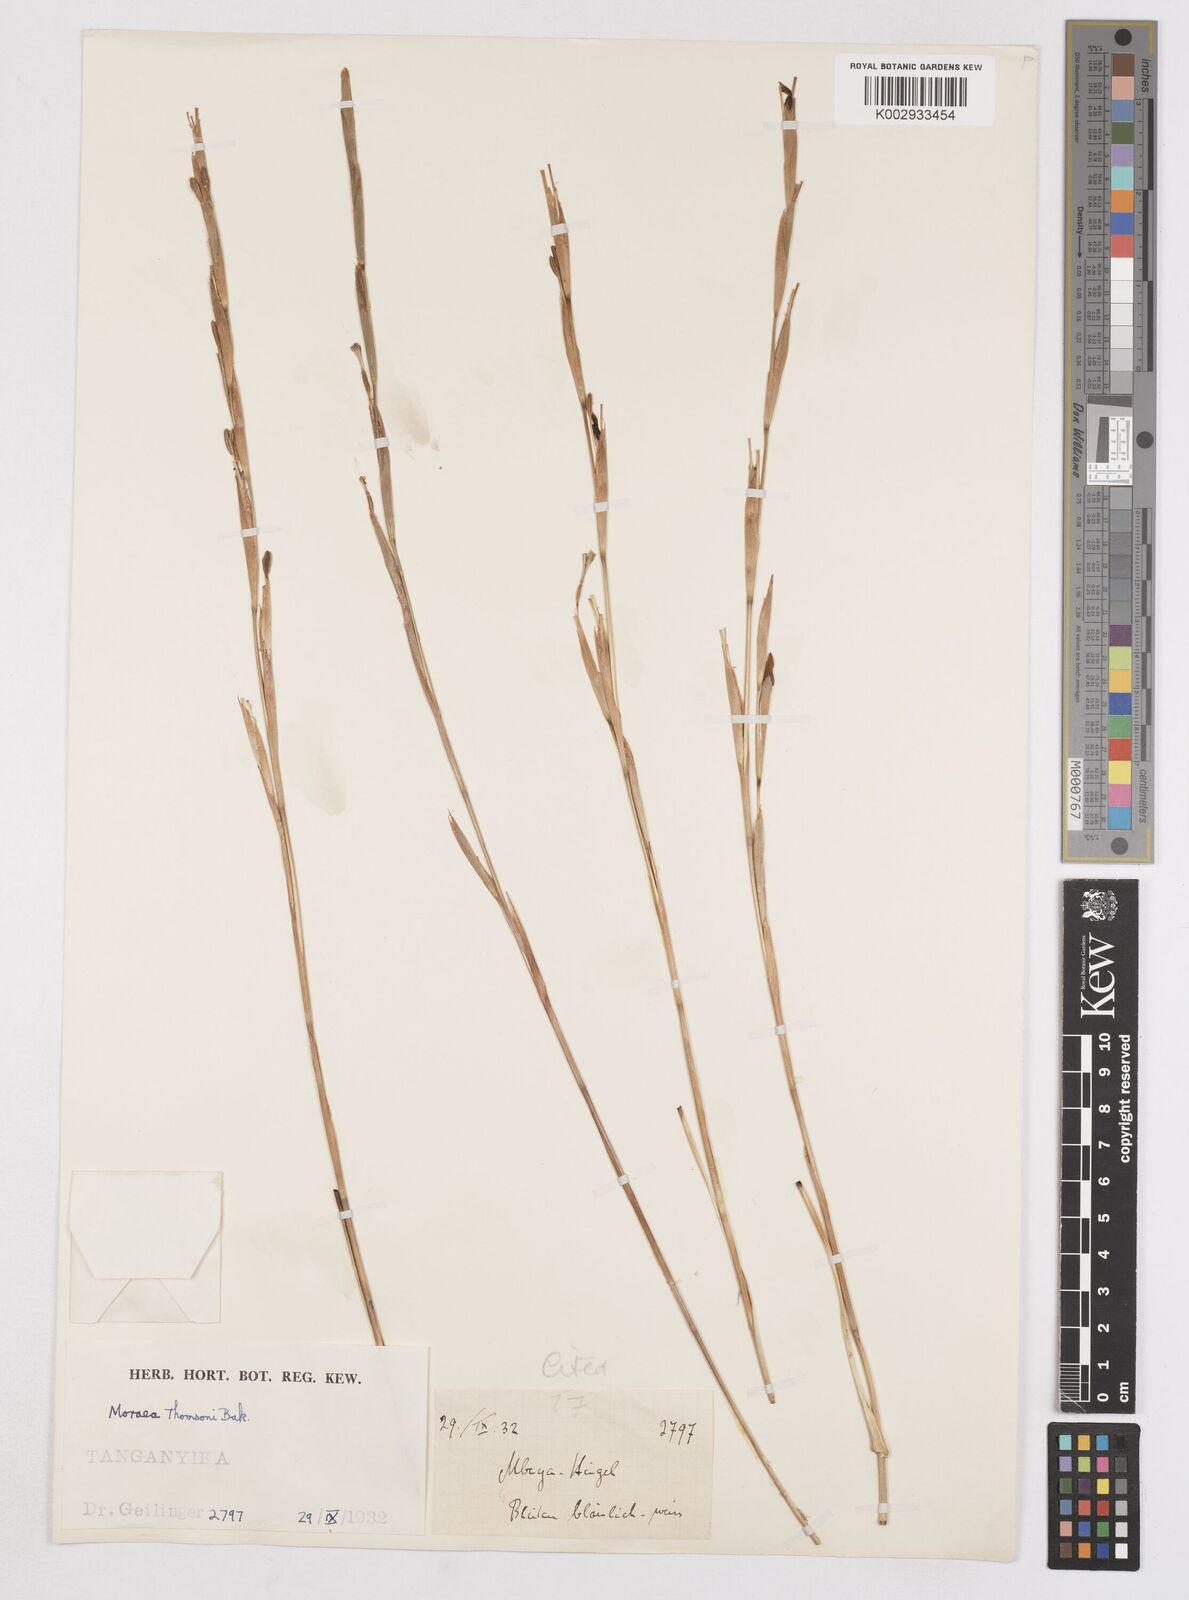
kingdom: Plantae
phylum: Tracheophyta
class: Liliopsida
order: Asparagales
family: Iridaceae
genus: Moraea
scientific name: Moraea stricta
